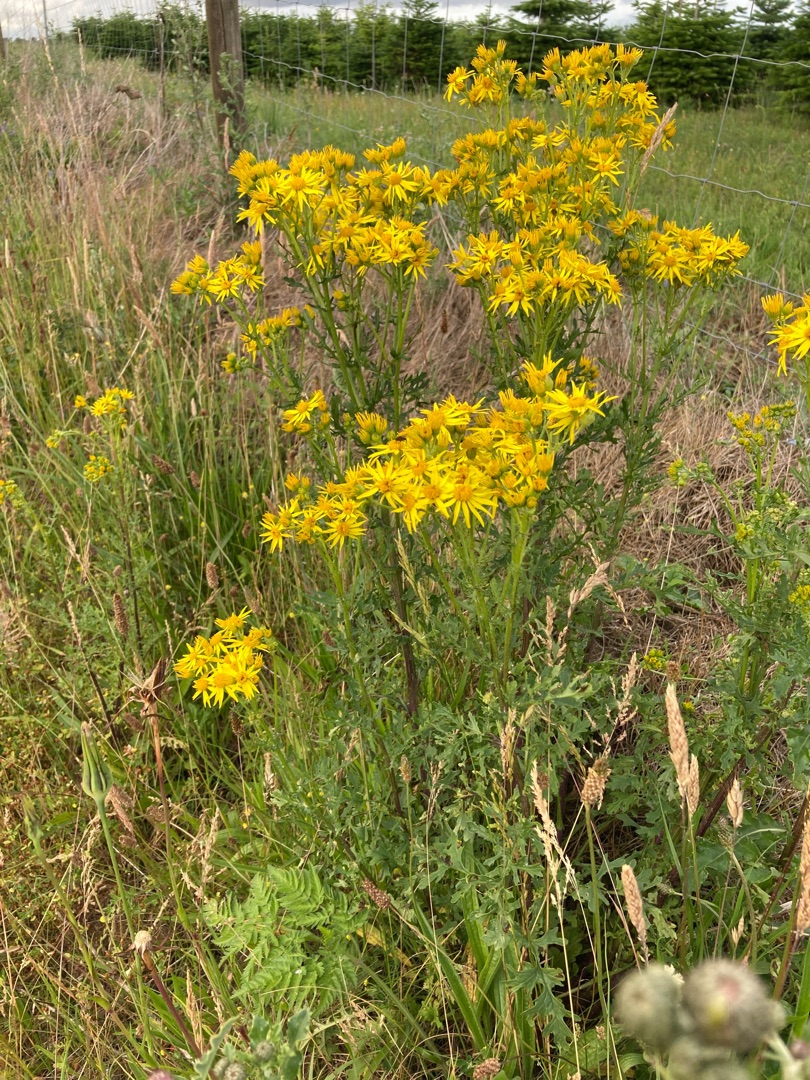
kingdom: Plantae
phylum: Tracheophyta
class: Magnoliopsida
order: Asterales
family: Asteraceae
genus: Jacobaea
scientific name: Jacobaea vulgaris
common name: Eng-brandbæger
